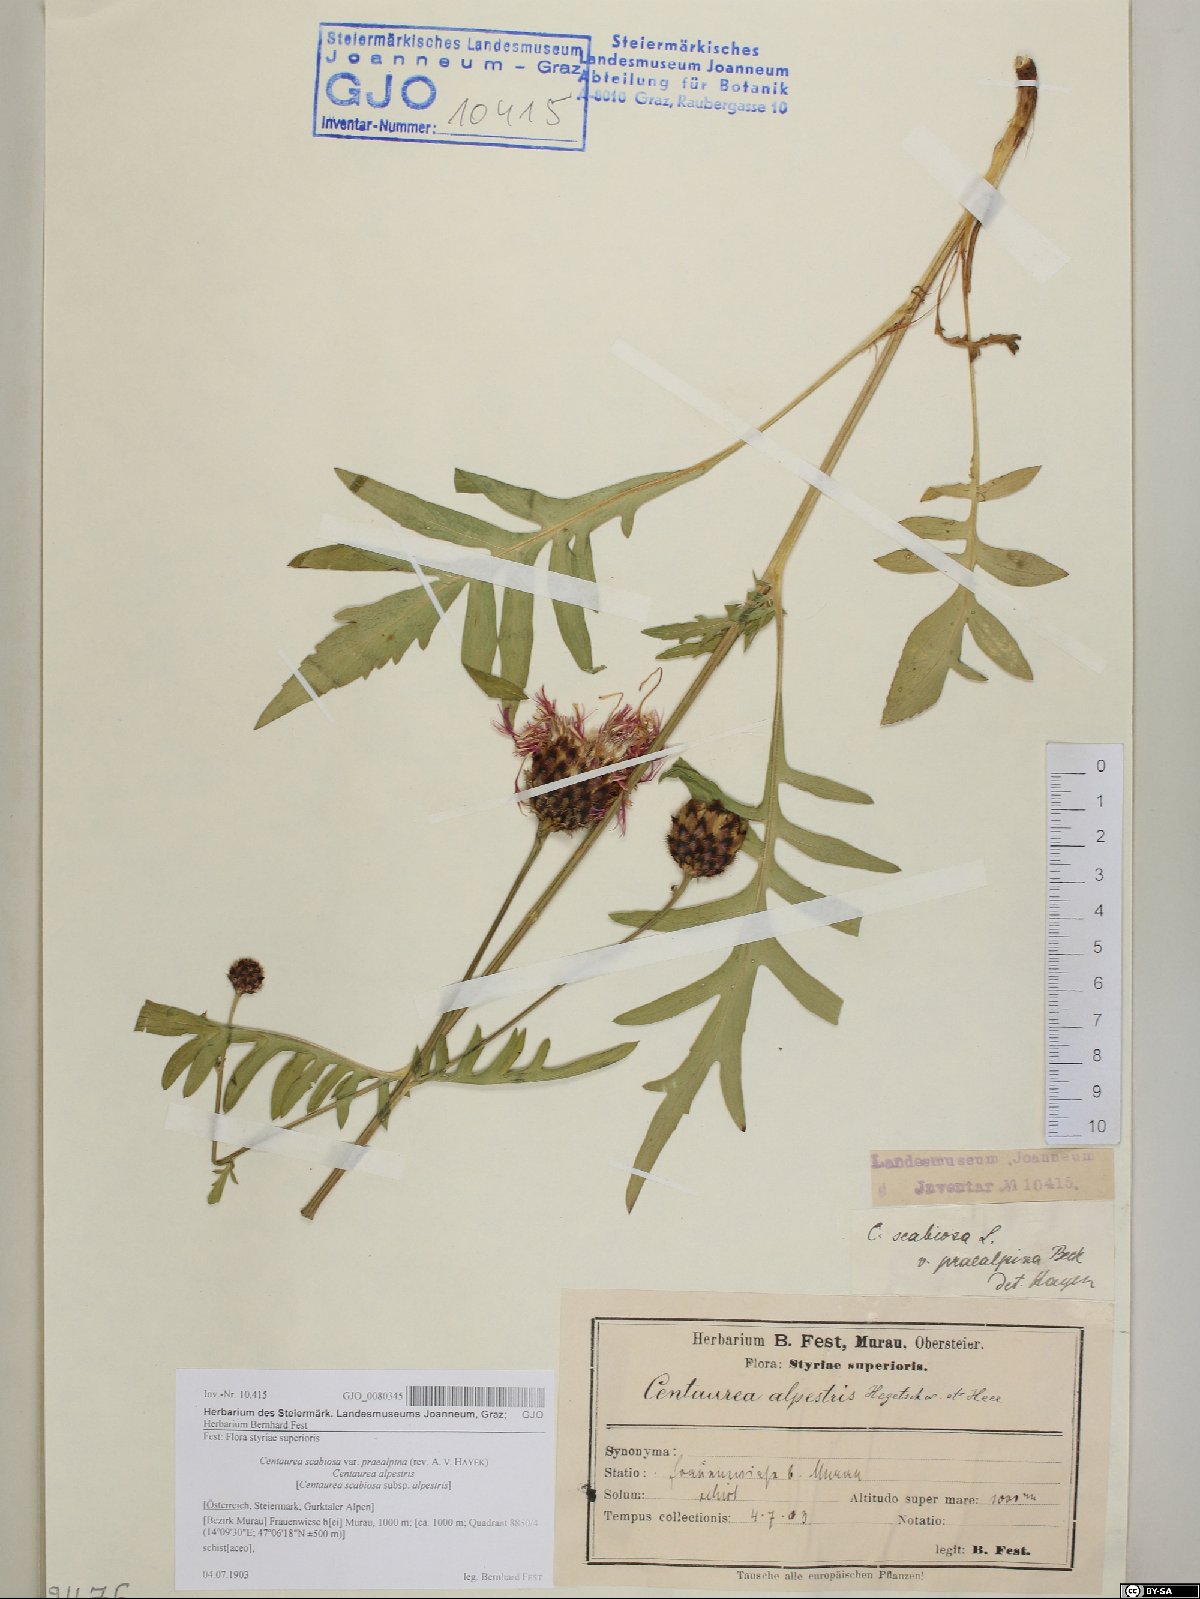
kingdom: Plantae
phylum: Tracheophyta
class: Magnoliopsida
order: Asterales
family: Asteraceae
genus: Centaurea
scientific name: Centaurea scabiosa
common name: Greater knapweed
